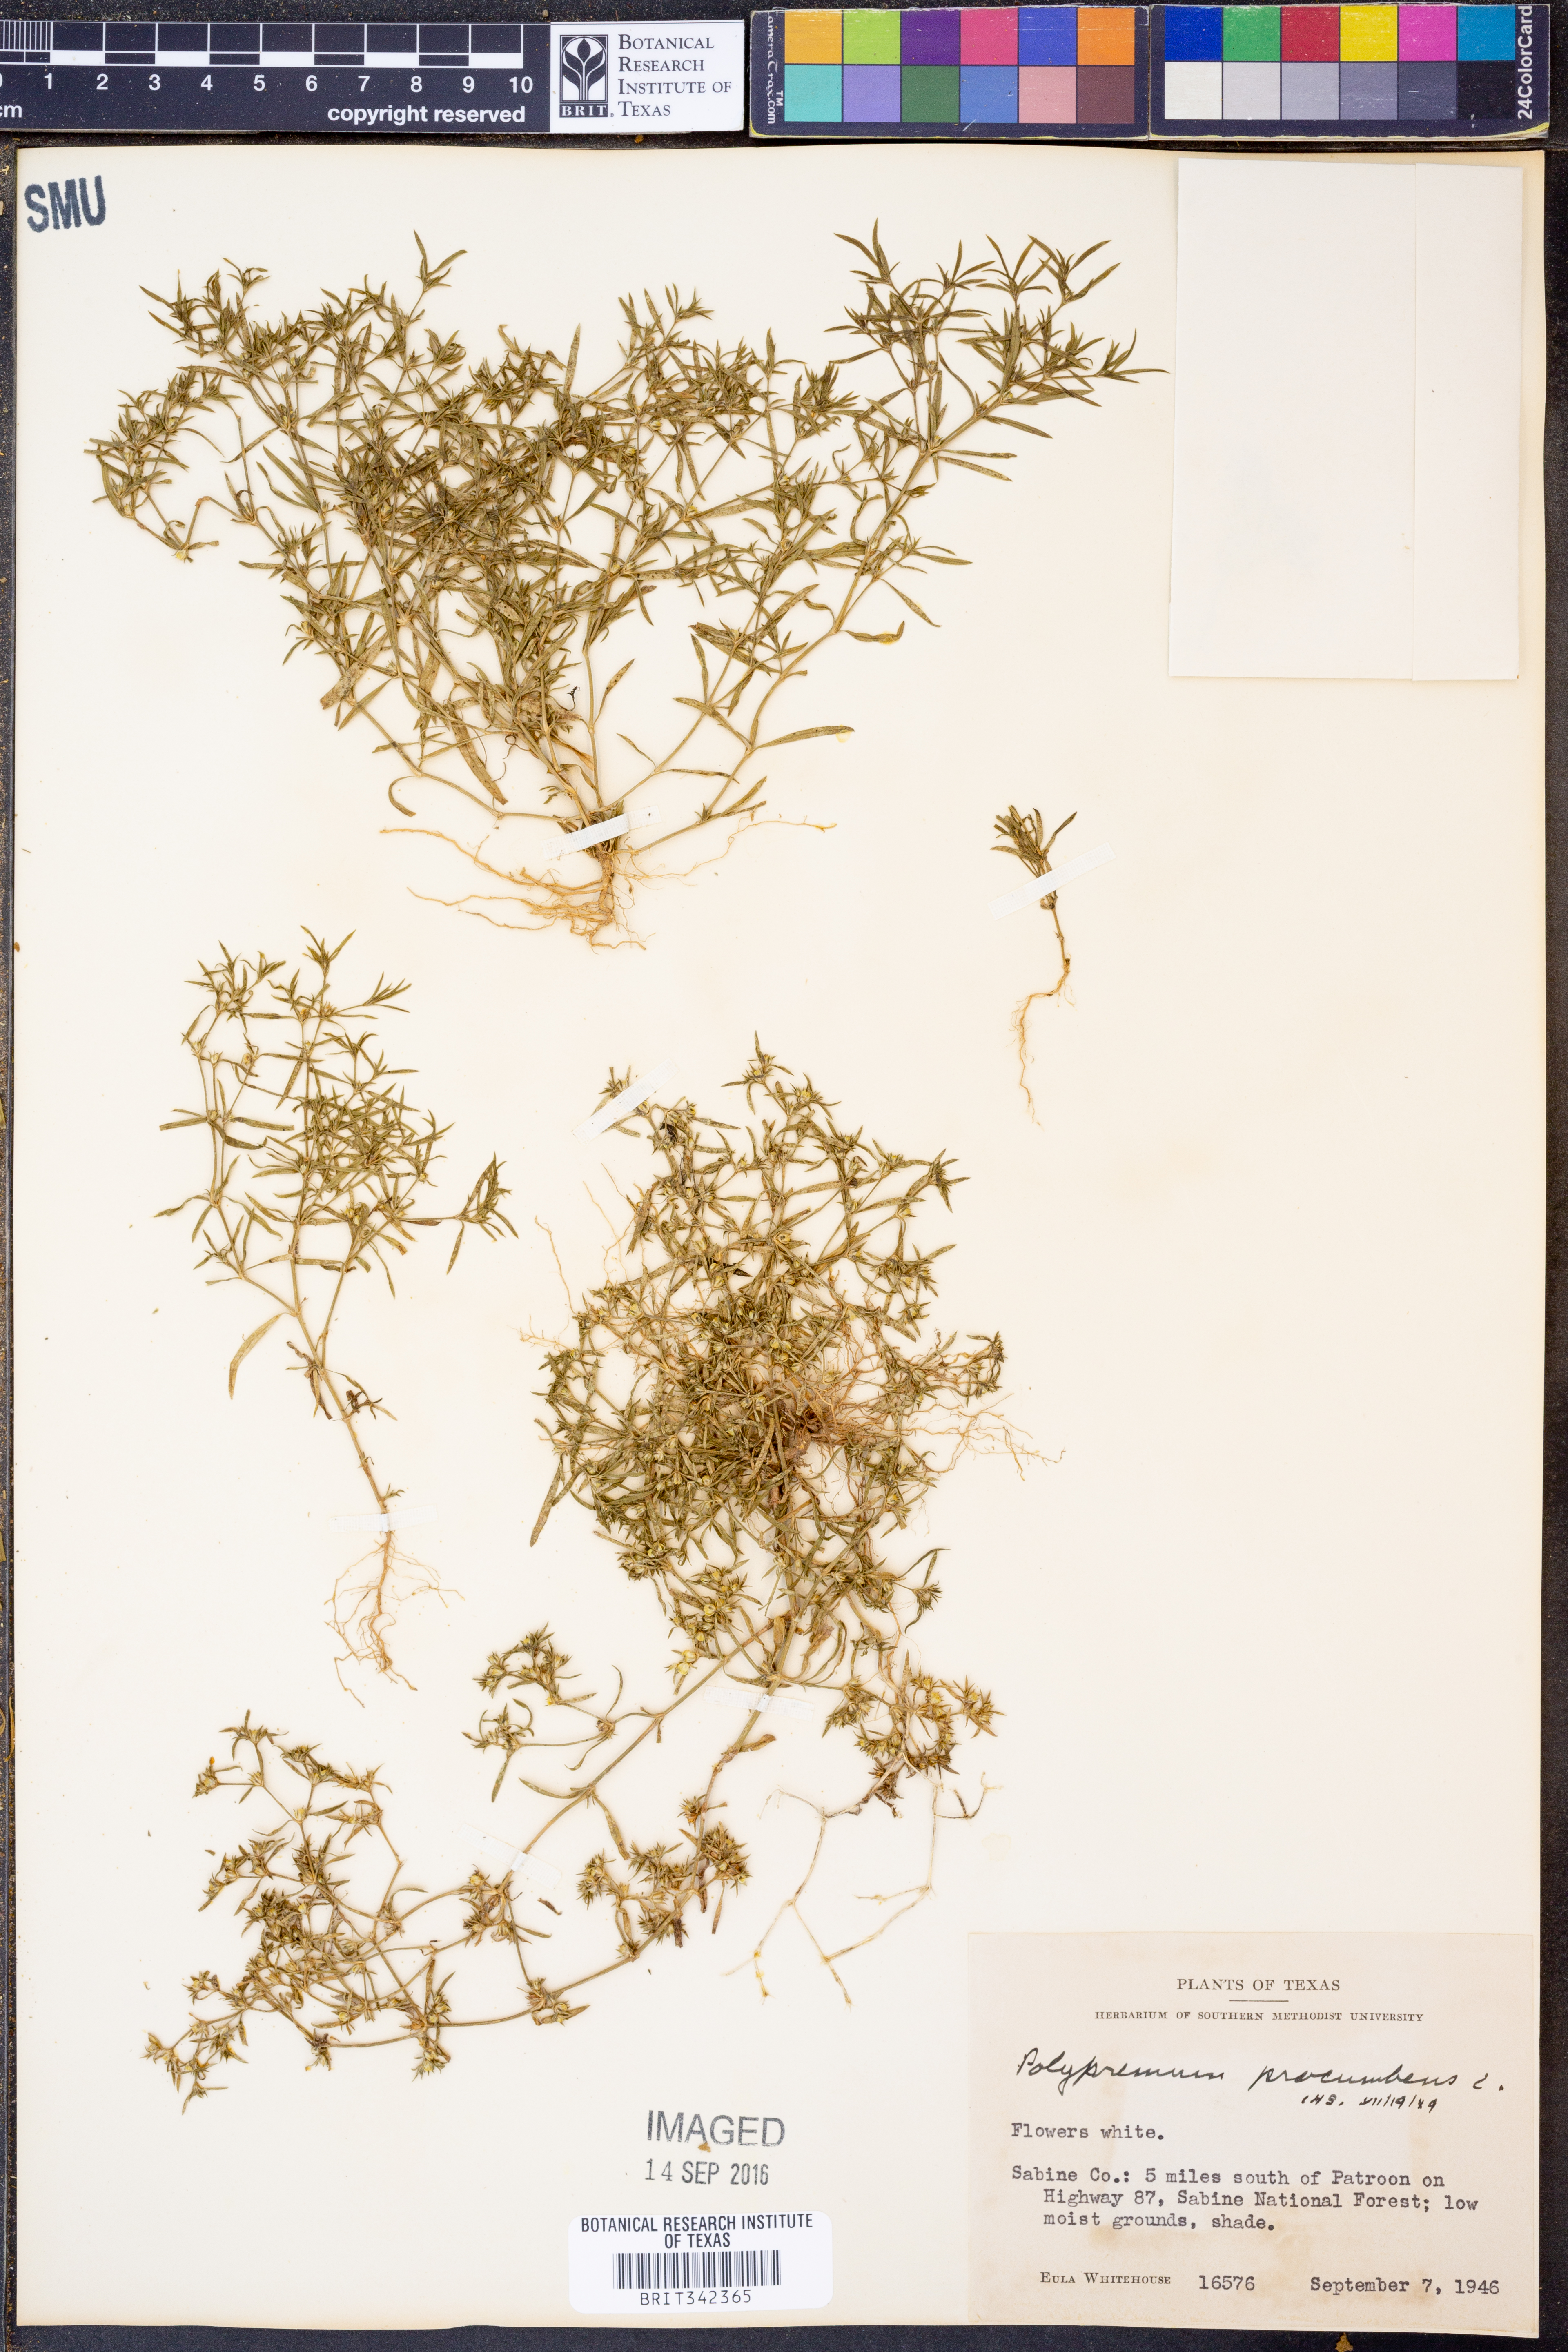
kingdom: Plantae
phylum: Tracheophyta
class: Magnoliopsida
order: Lamiales
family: Tetrachondraceae
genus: Polypremum
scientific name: Polypremum procumbens
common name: Juniper-leaf
